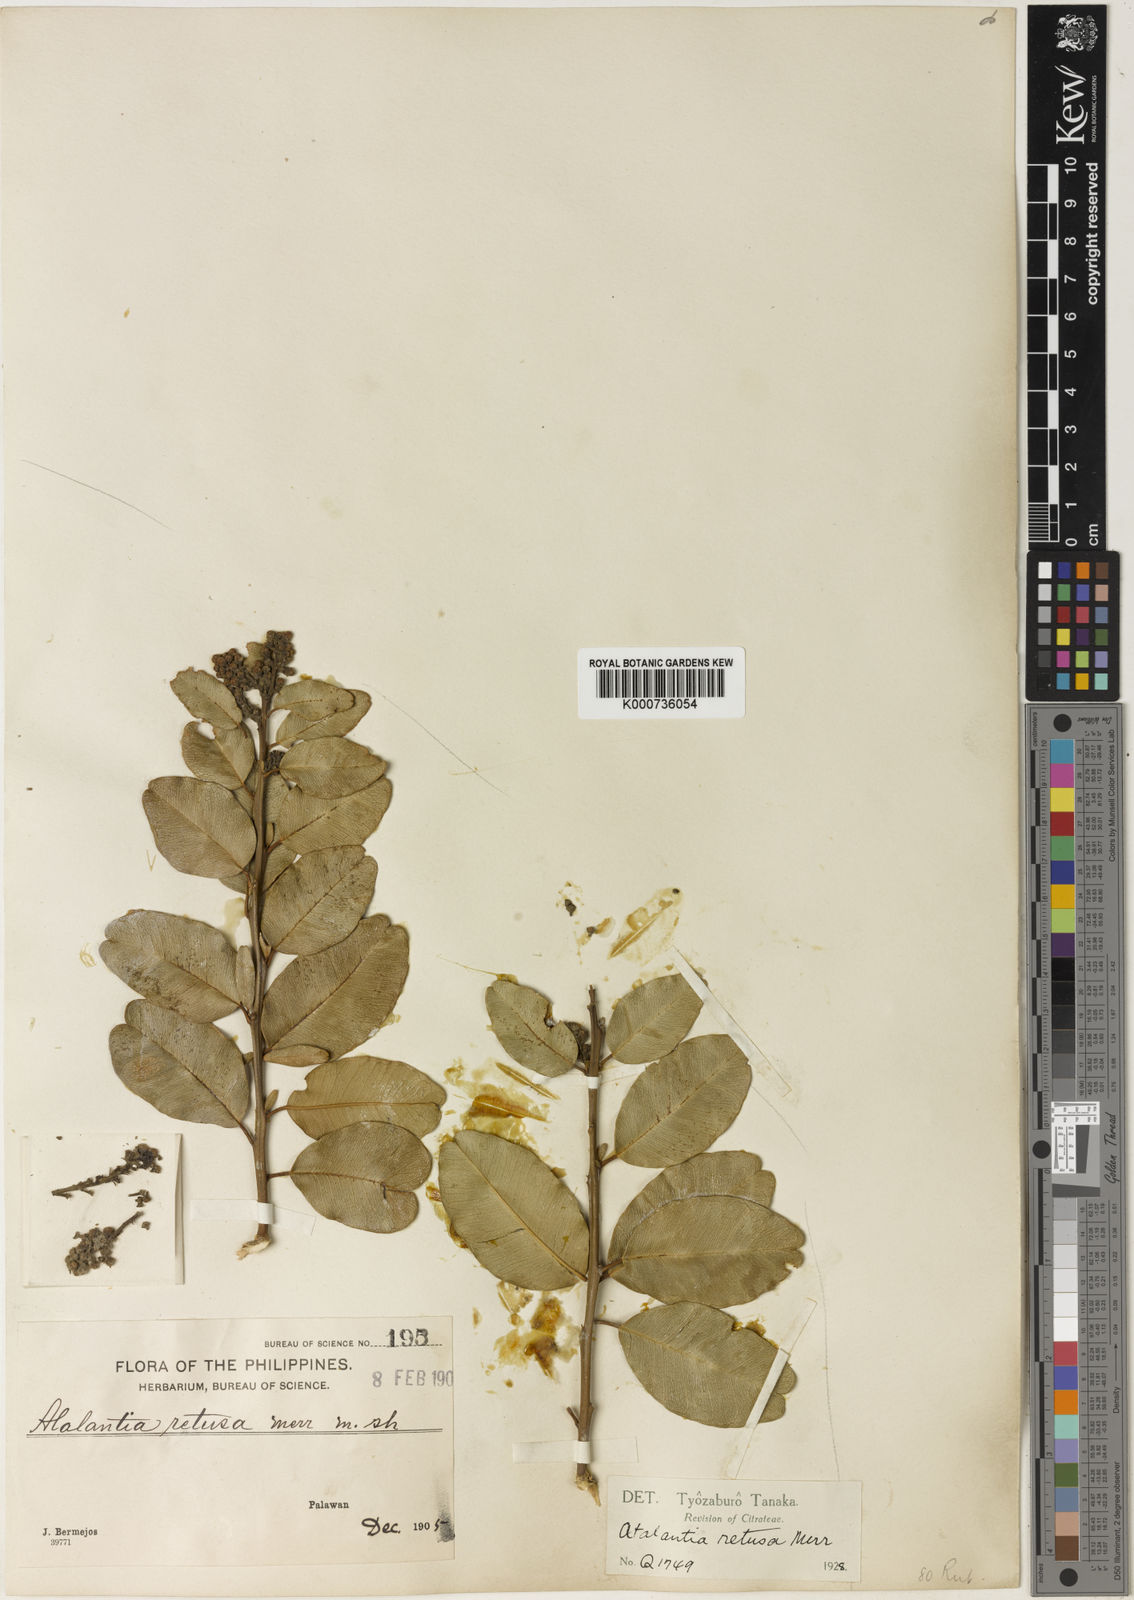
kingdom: Plantae
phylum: Tracheophyta
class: Magnoliopsida
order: Sapindales
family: Rutaceae
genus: Atalantia
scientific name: Atalantia retusa
